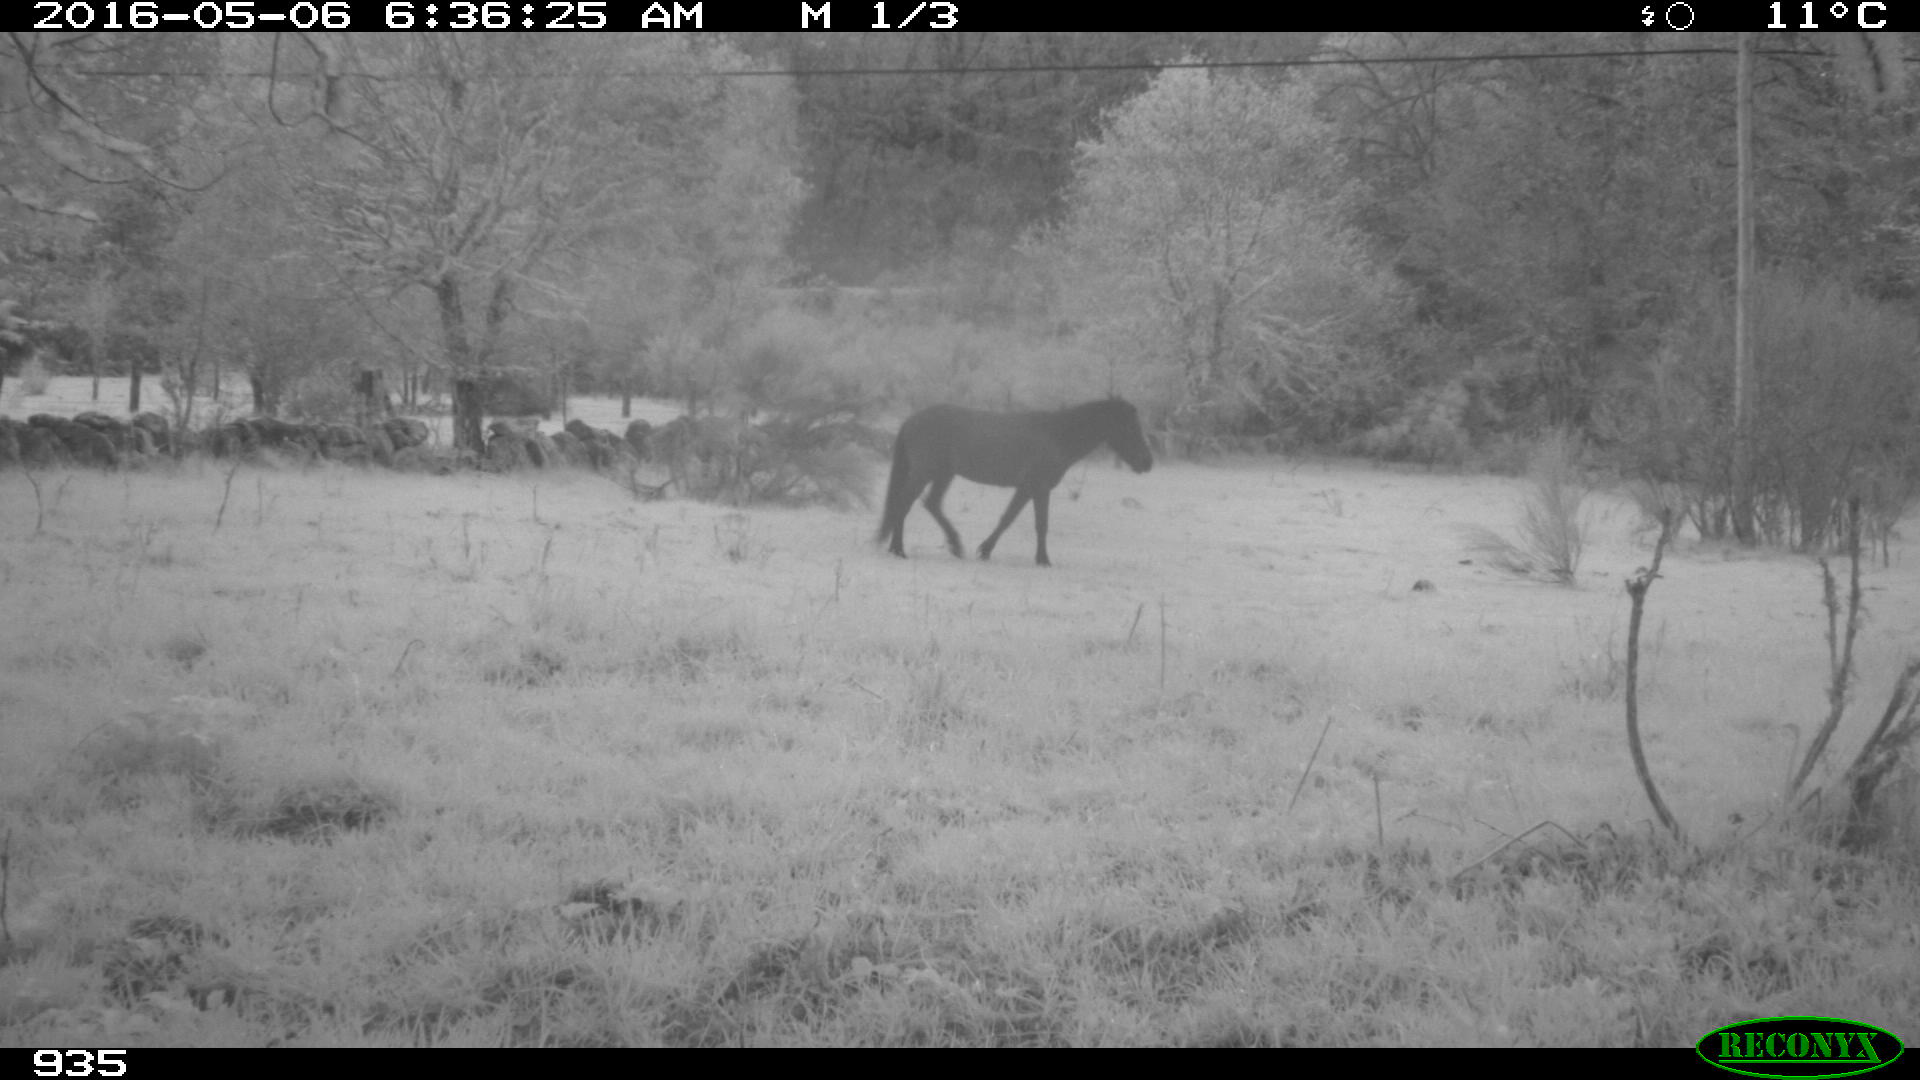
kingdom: Animalia
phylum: Chordata
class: Mammalia
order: Perissodactyla
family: Equidae
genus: Equus
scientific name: Equus caballus
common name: Horse
